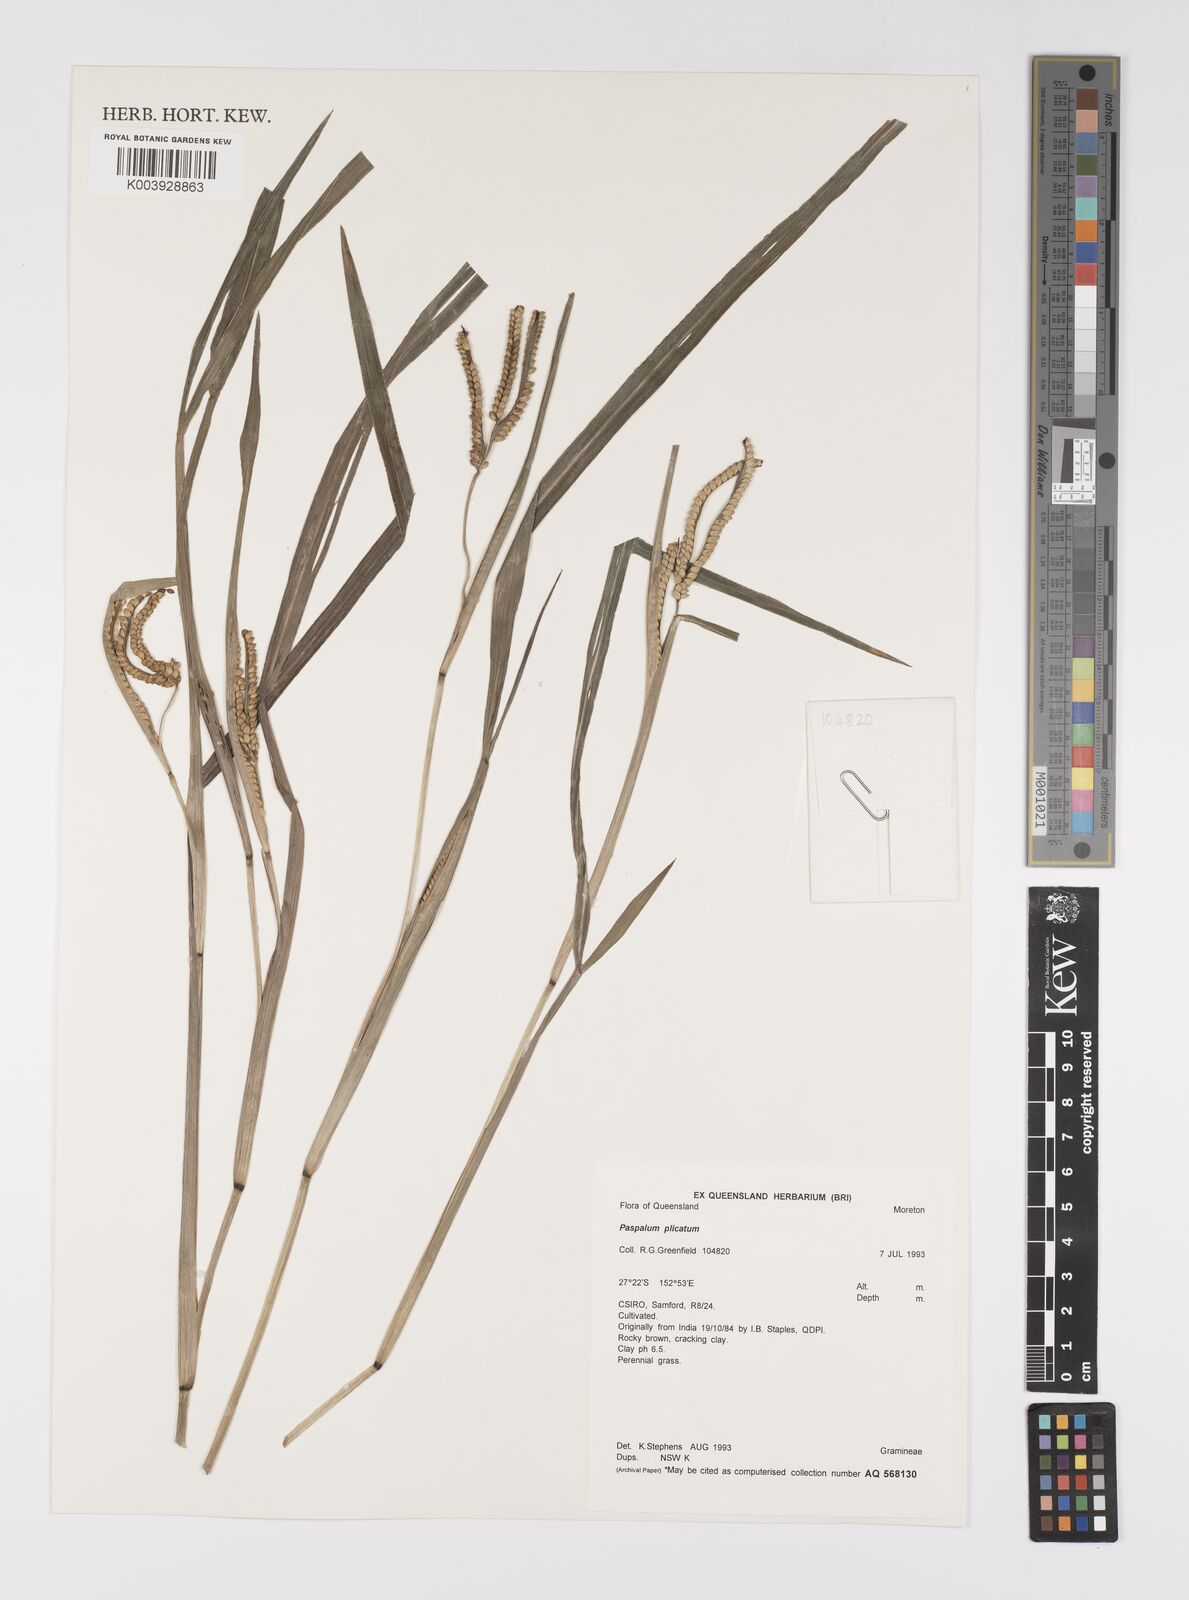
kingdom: Plantae
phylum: Tracheophyta
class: Liliopsida
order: Poales
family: Poaceae
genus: Paspalum
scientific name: Paspalum laeve
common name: Field paspalum
